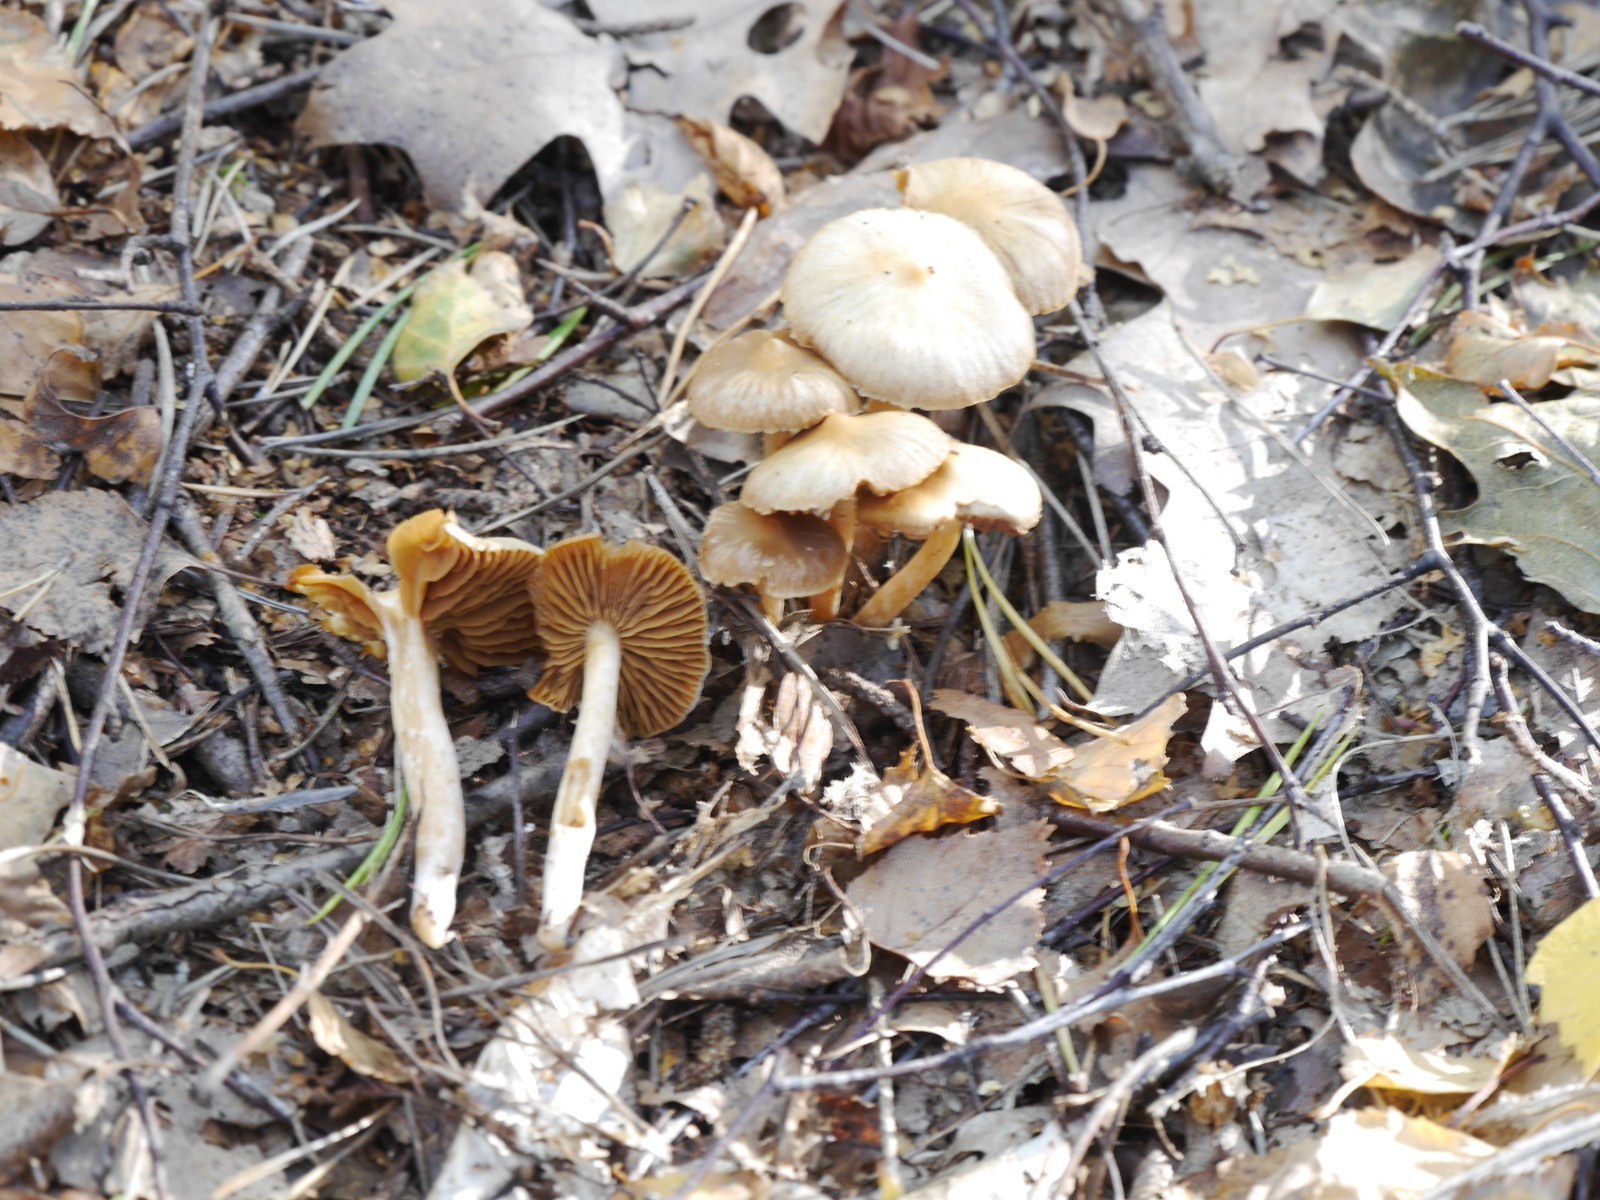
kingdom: Fungi
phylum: Basidiomycota
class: Agaricomycetes
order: Agaricales
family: Cortinariaceae
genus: Cortinarius
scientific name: Cortinarius
